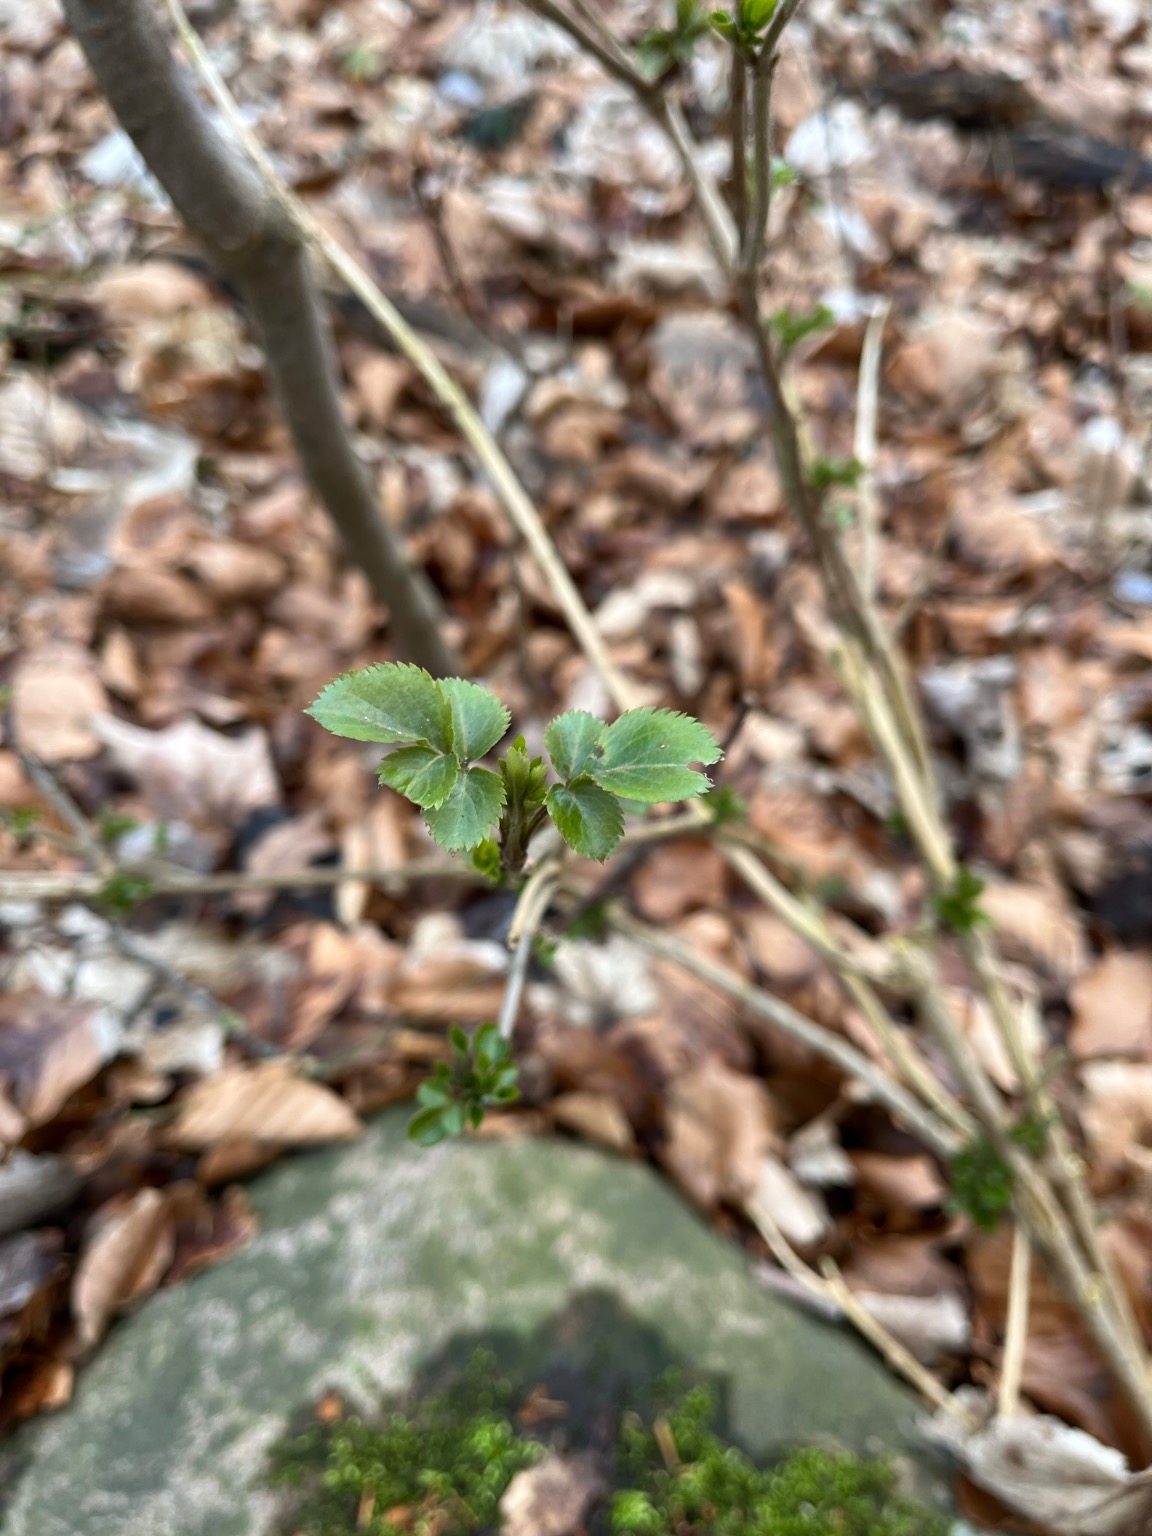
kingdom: Plantae
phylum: Tracheophyta
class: Magnoliopsida
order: Dipsacales
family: Viburnaceae
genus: Sambucus
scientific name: Sambucus nigra
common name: Almindelig hyld
